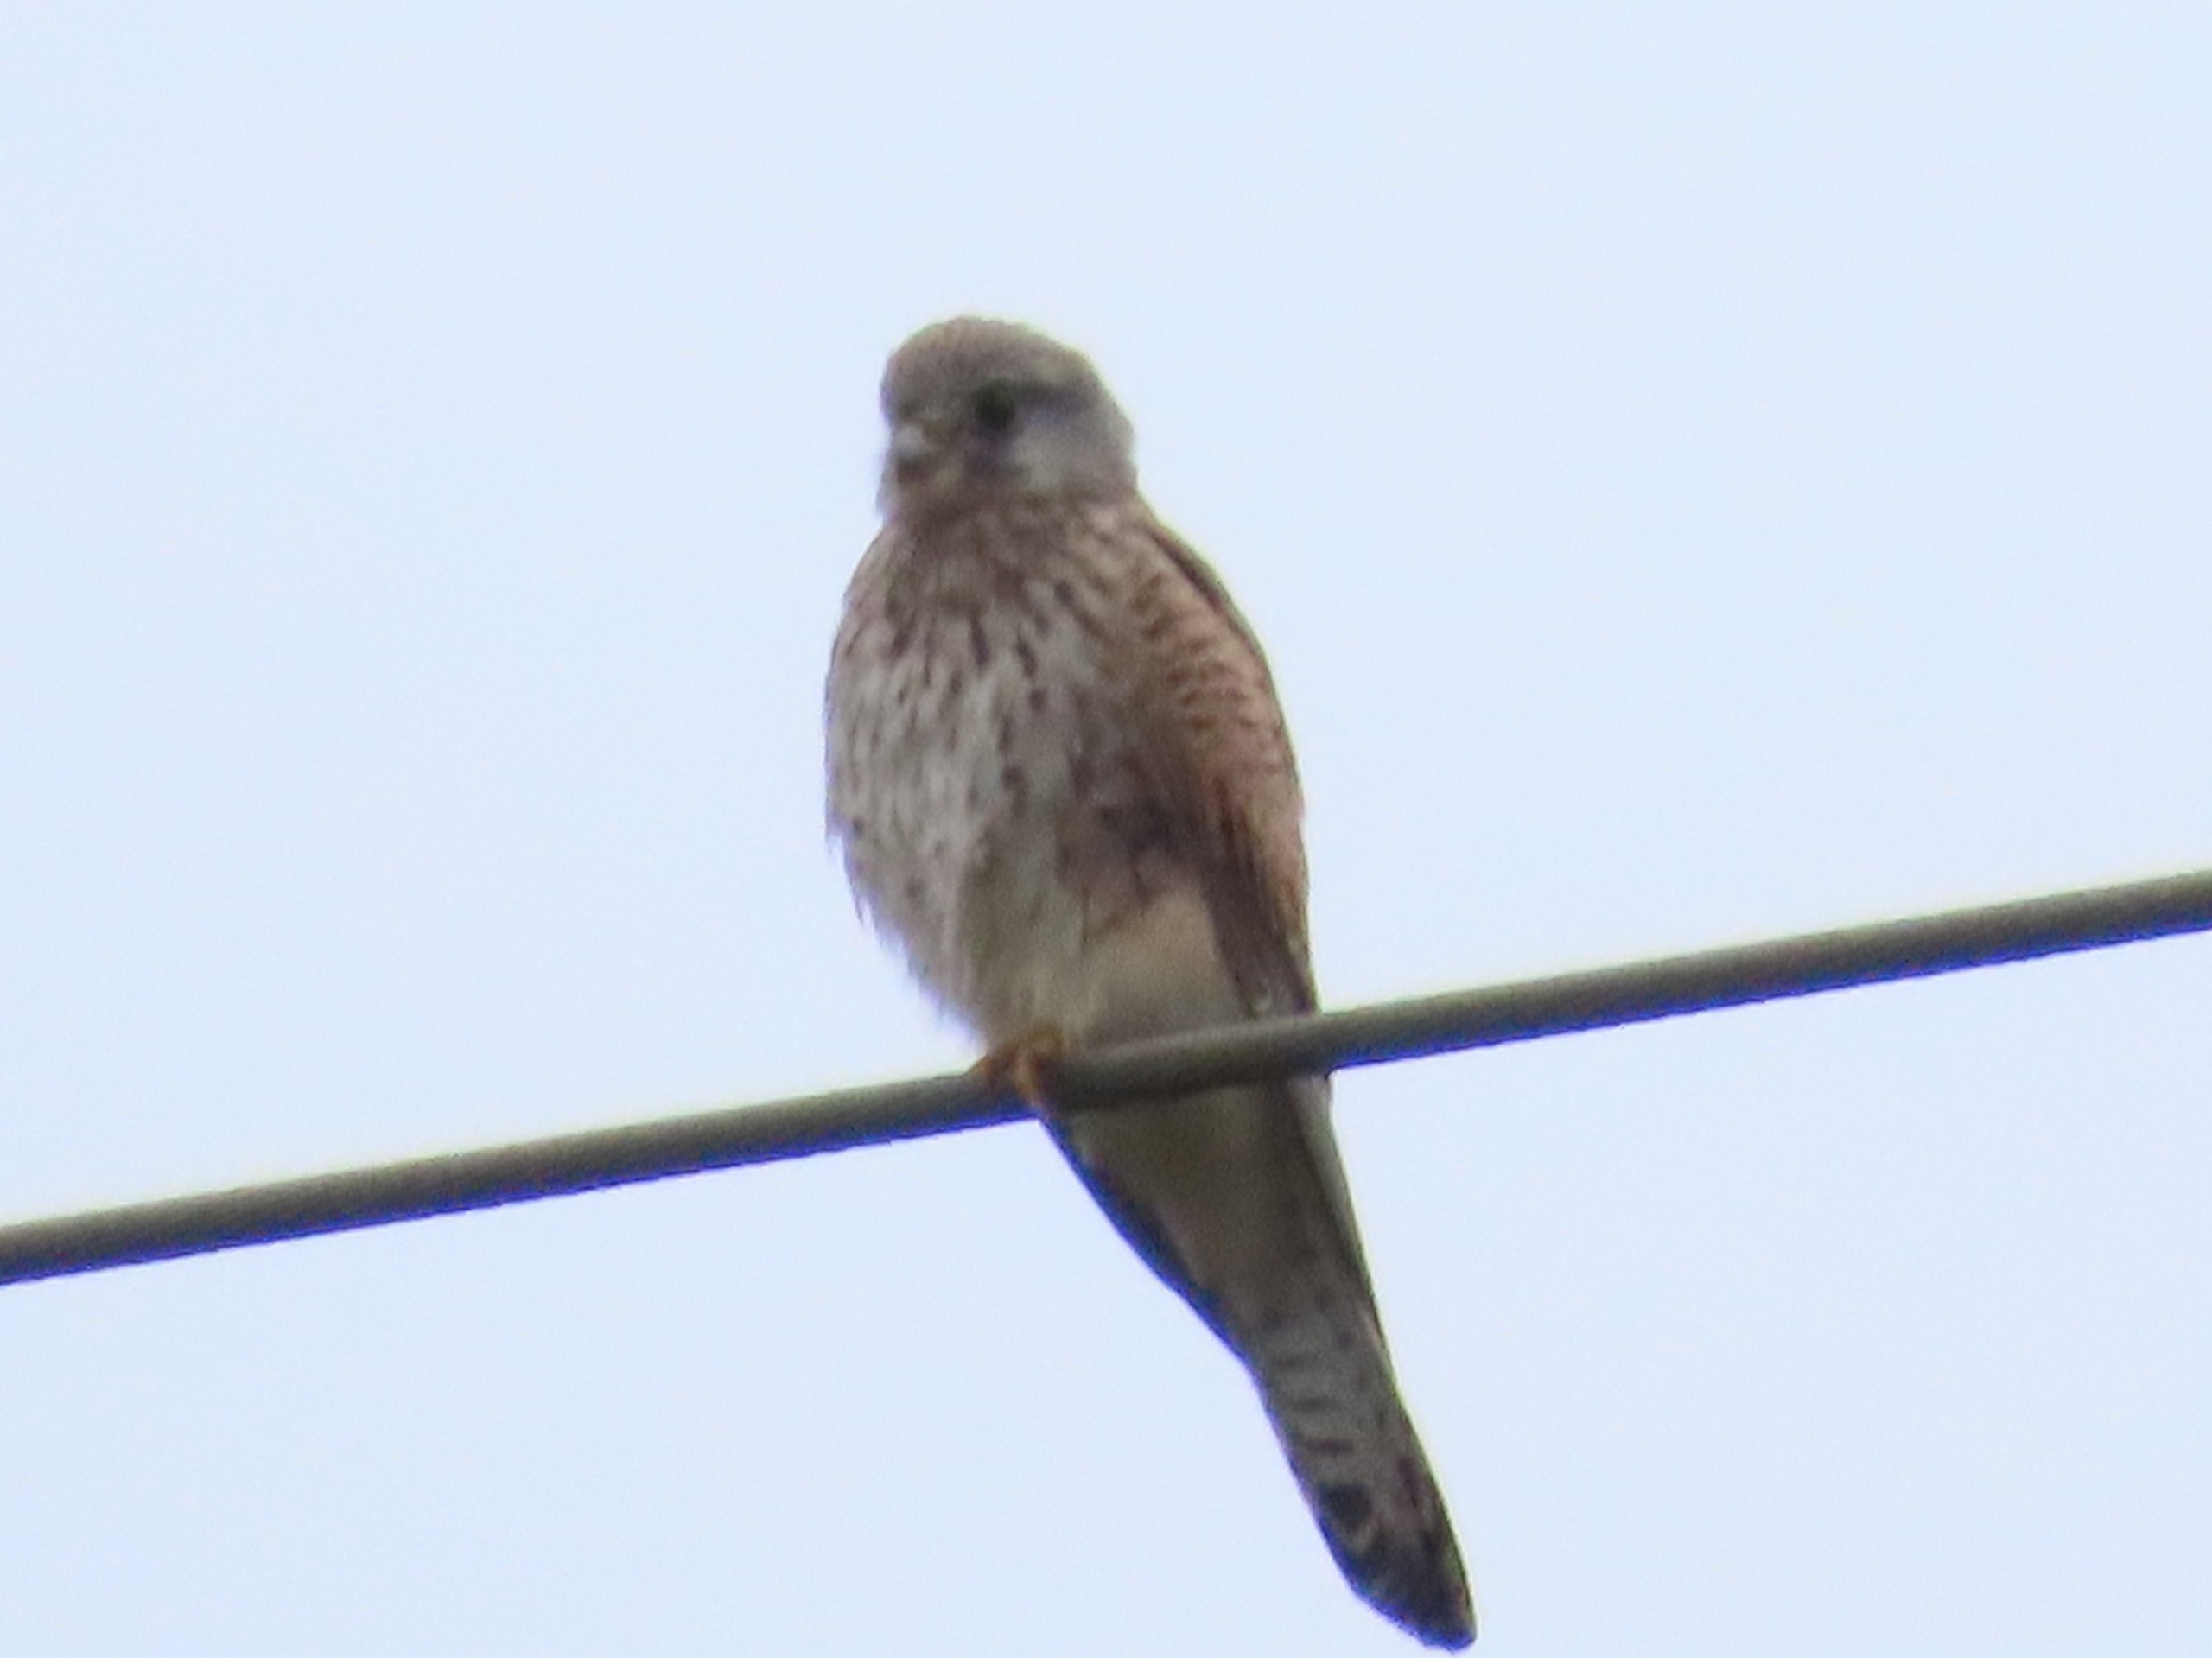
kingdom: Animalia
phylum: Chordata
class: Aves
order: Falconiformes
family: Falconidae
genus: Falco
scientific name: Falco tinnunculus
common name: Tårnfalk
